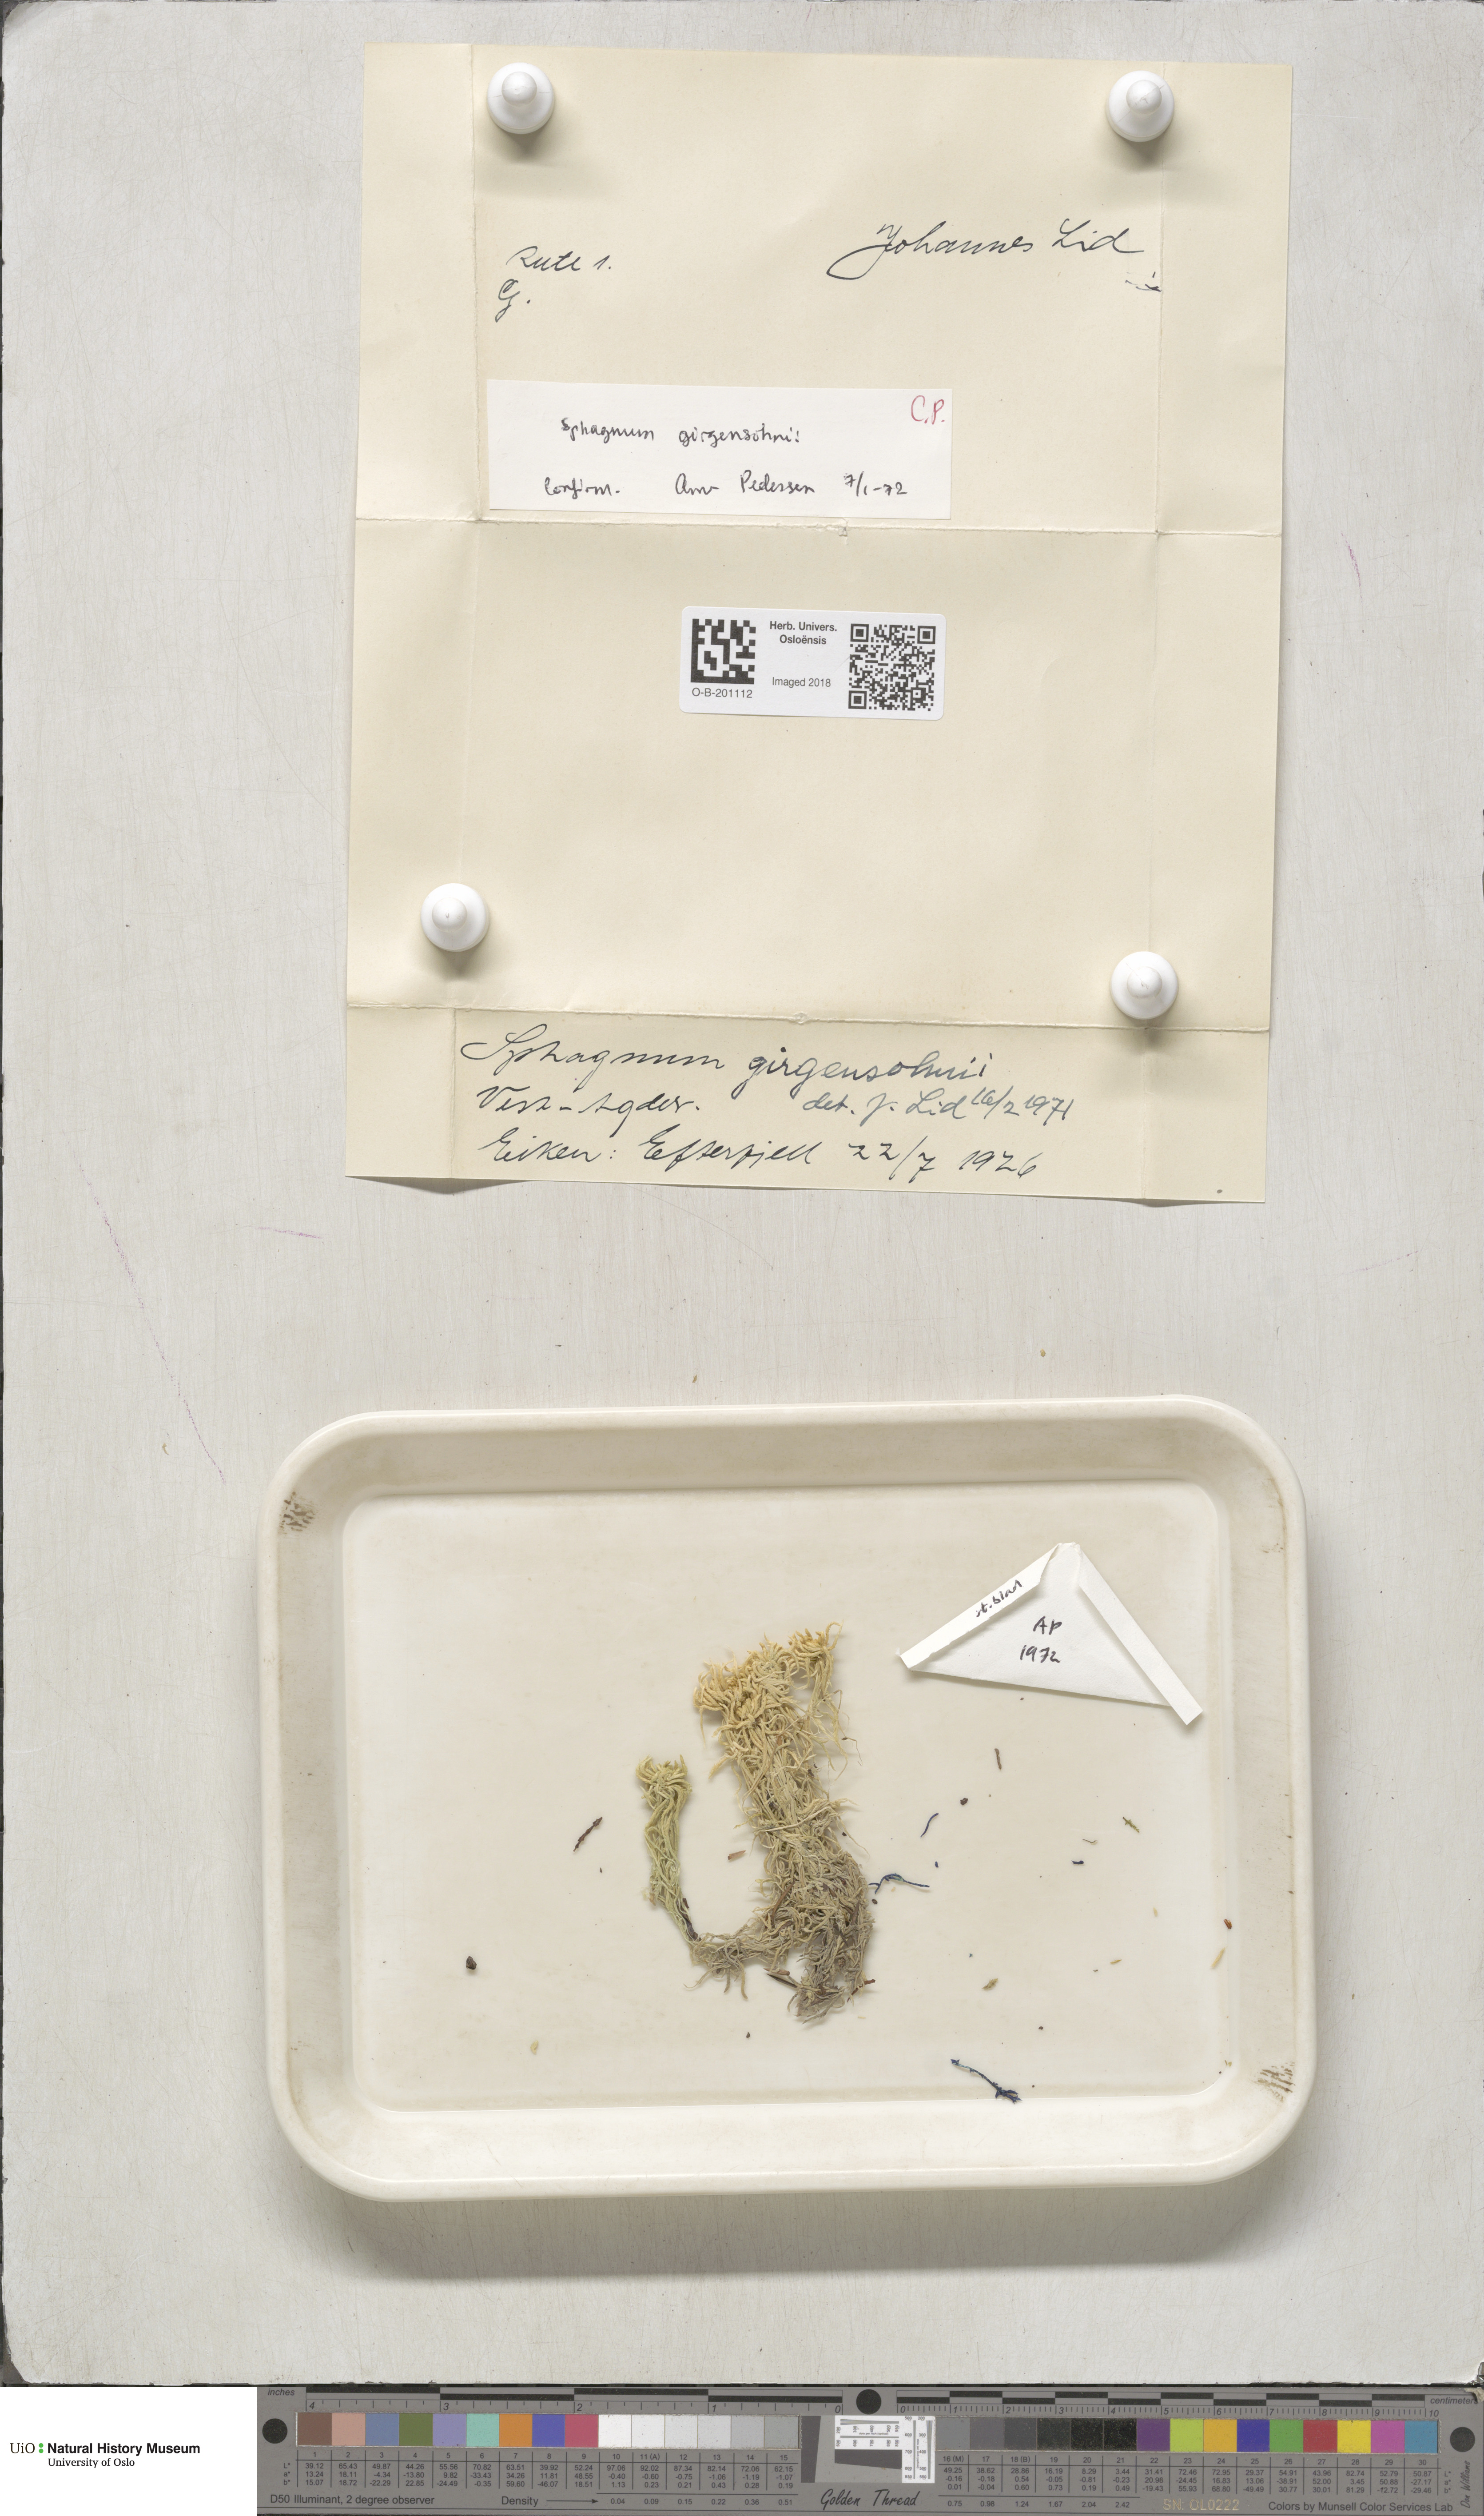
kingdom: Plantae
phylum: Bryophyta
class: Sphagnopsida
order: Sphagnales
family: Sphagnaceae
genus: Sphagnum
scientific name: Sphagnum girgensohnii
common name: Girgensohn's peat moss
